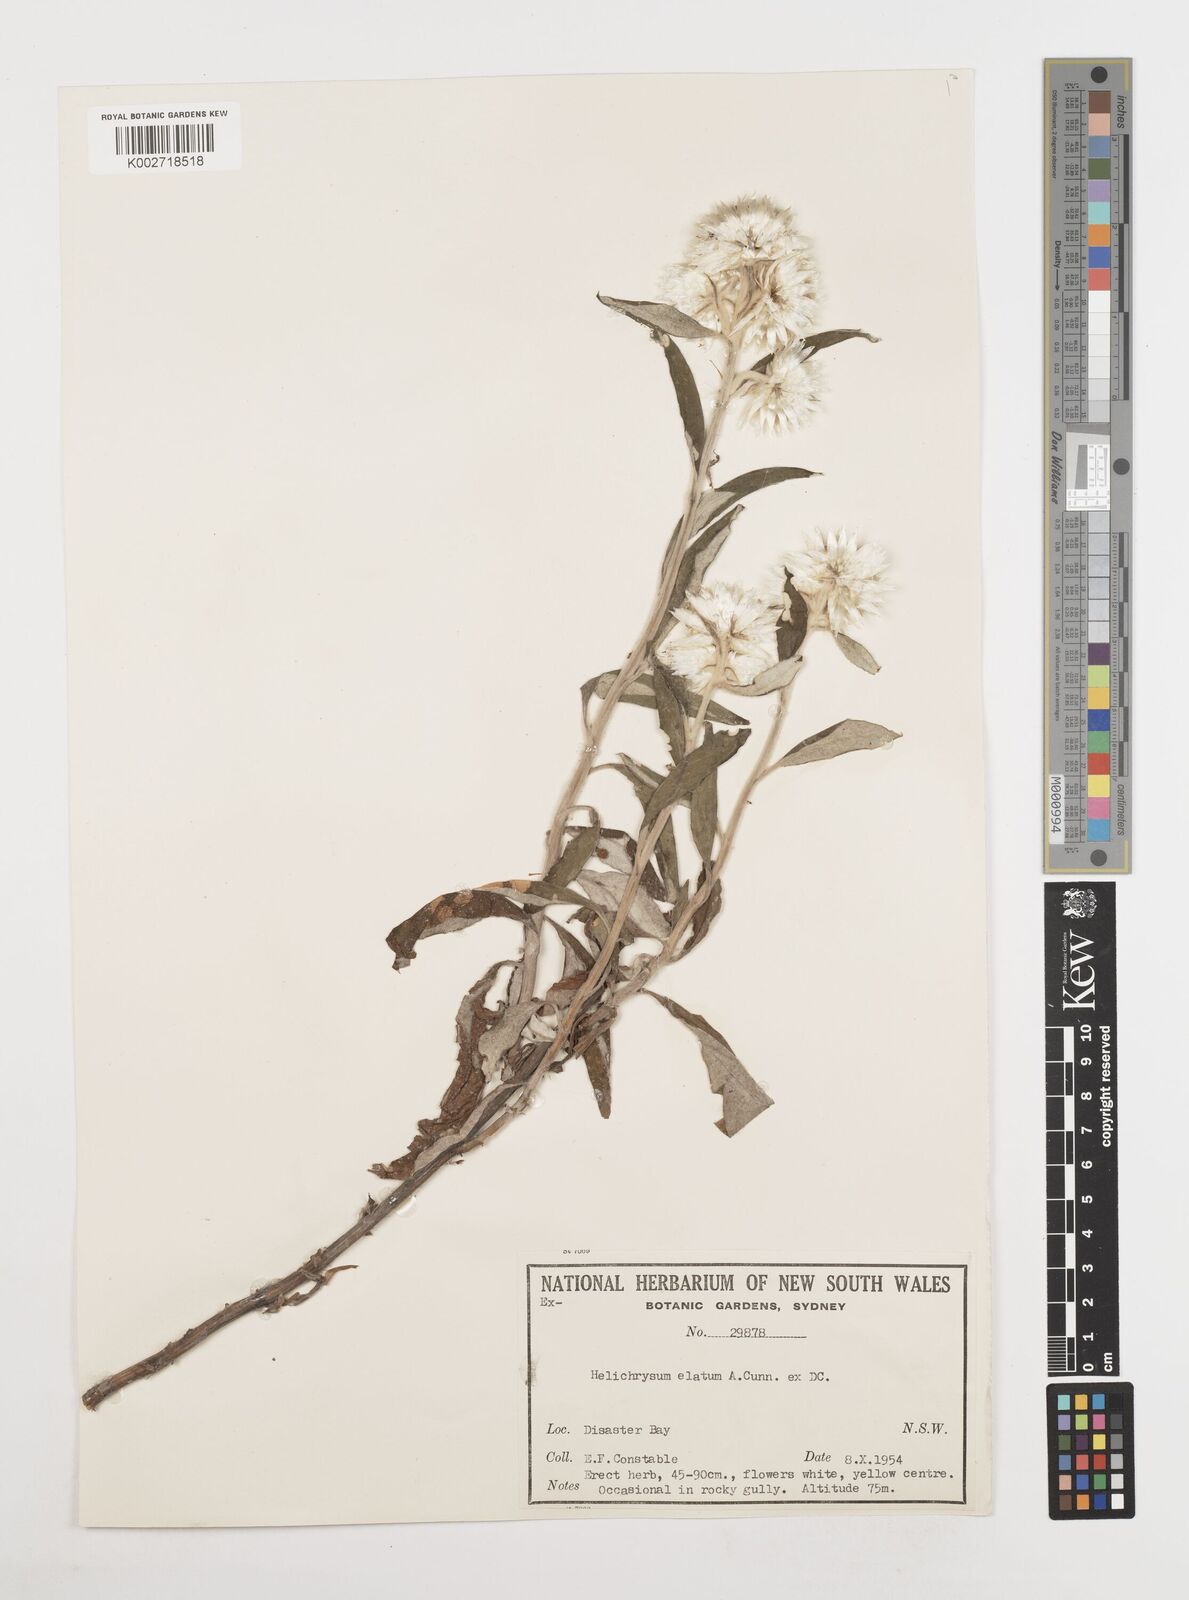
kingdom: Plantae
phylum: Tracheophyta
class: Magnoliopsida
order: Asterales
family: Asteraceae
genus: Leucozoma
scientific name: Leucozoma elatum
